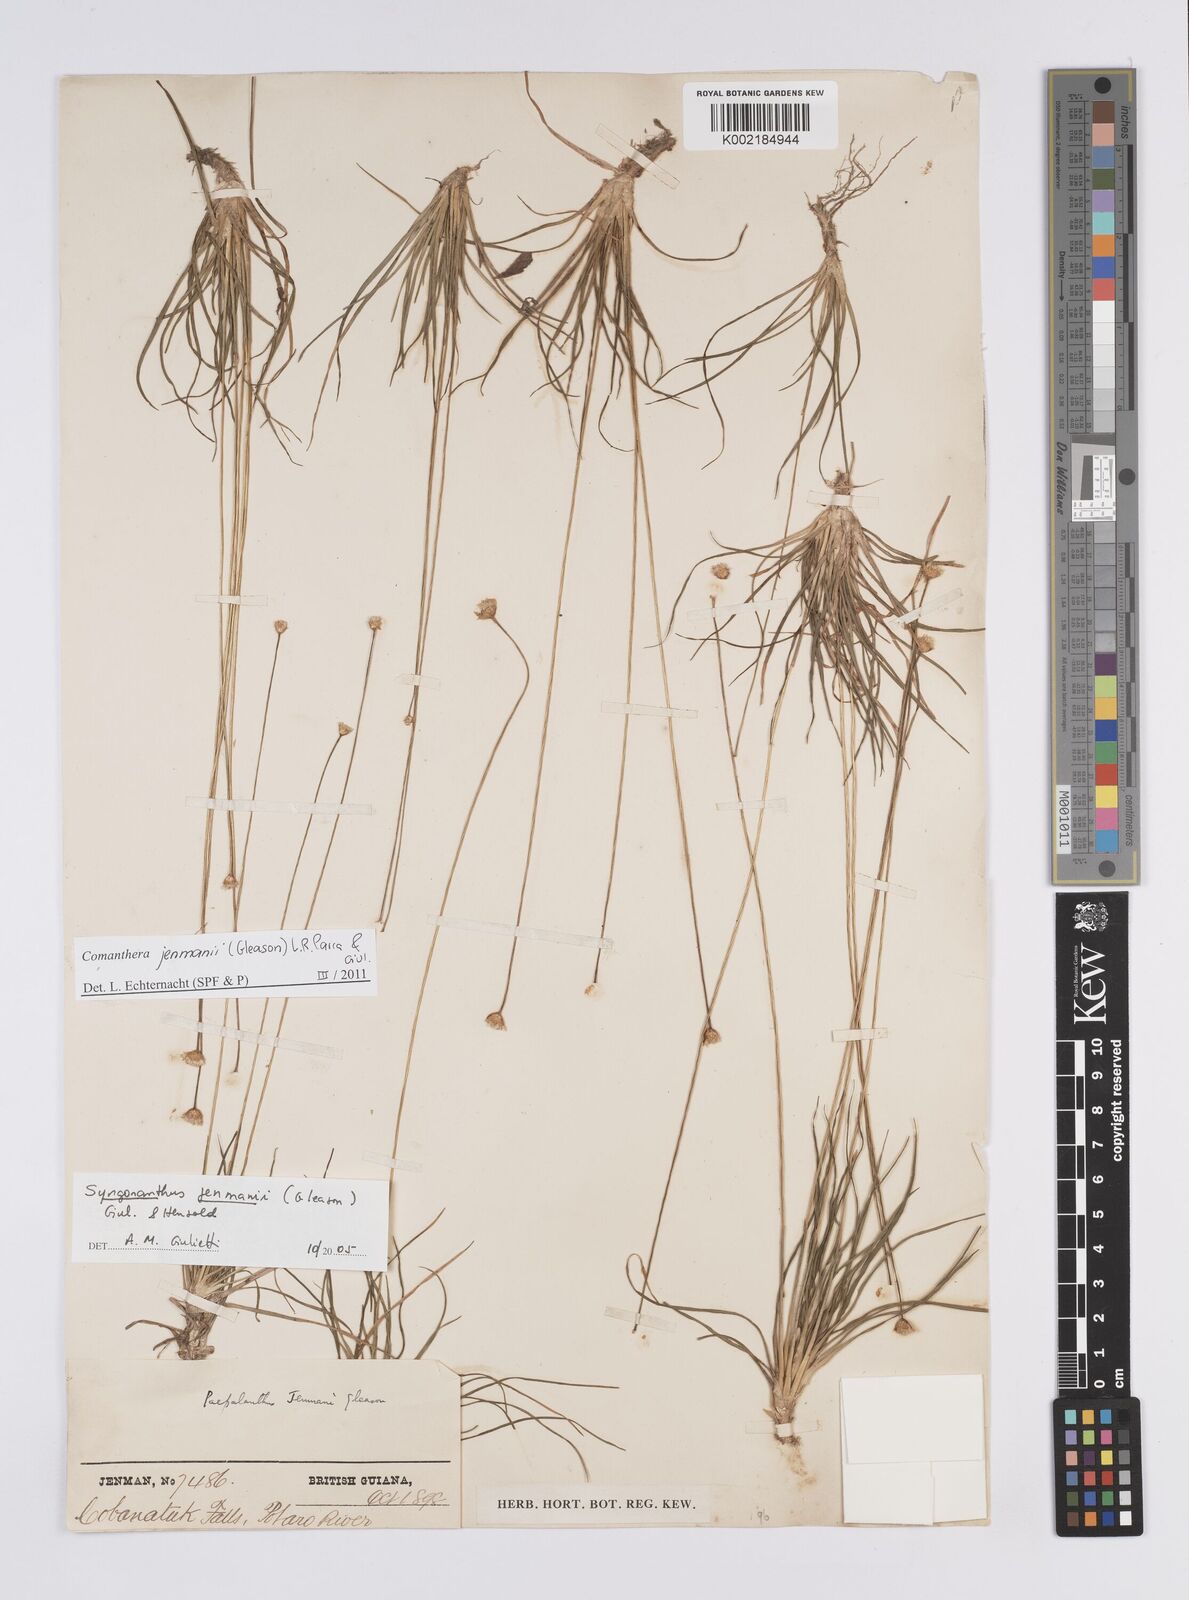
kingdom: Plantae
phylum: Tracheophyta
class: Liliopsida
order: Poales
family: Eriocaulaceae
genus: Comanthera
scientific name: Comanthera jenmanii
